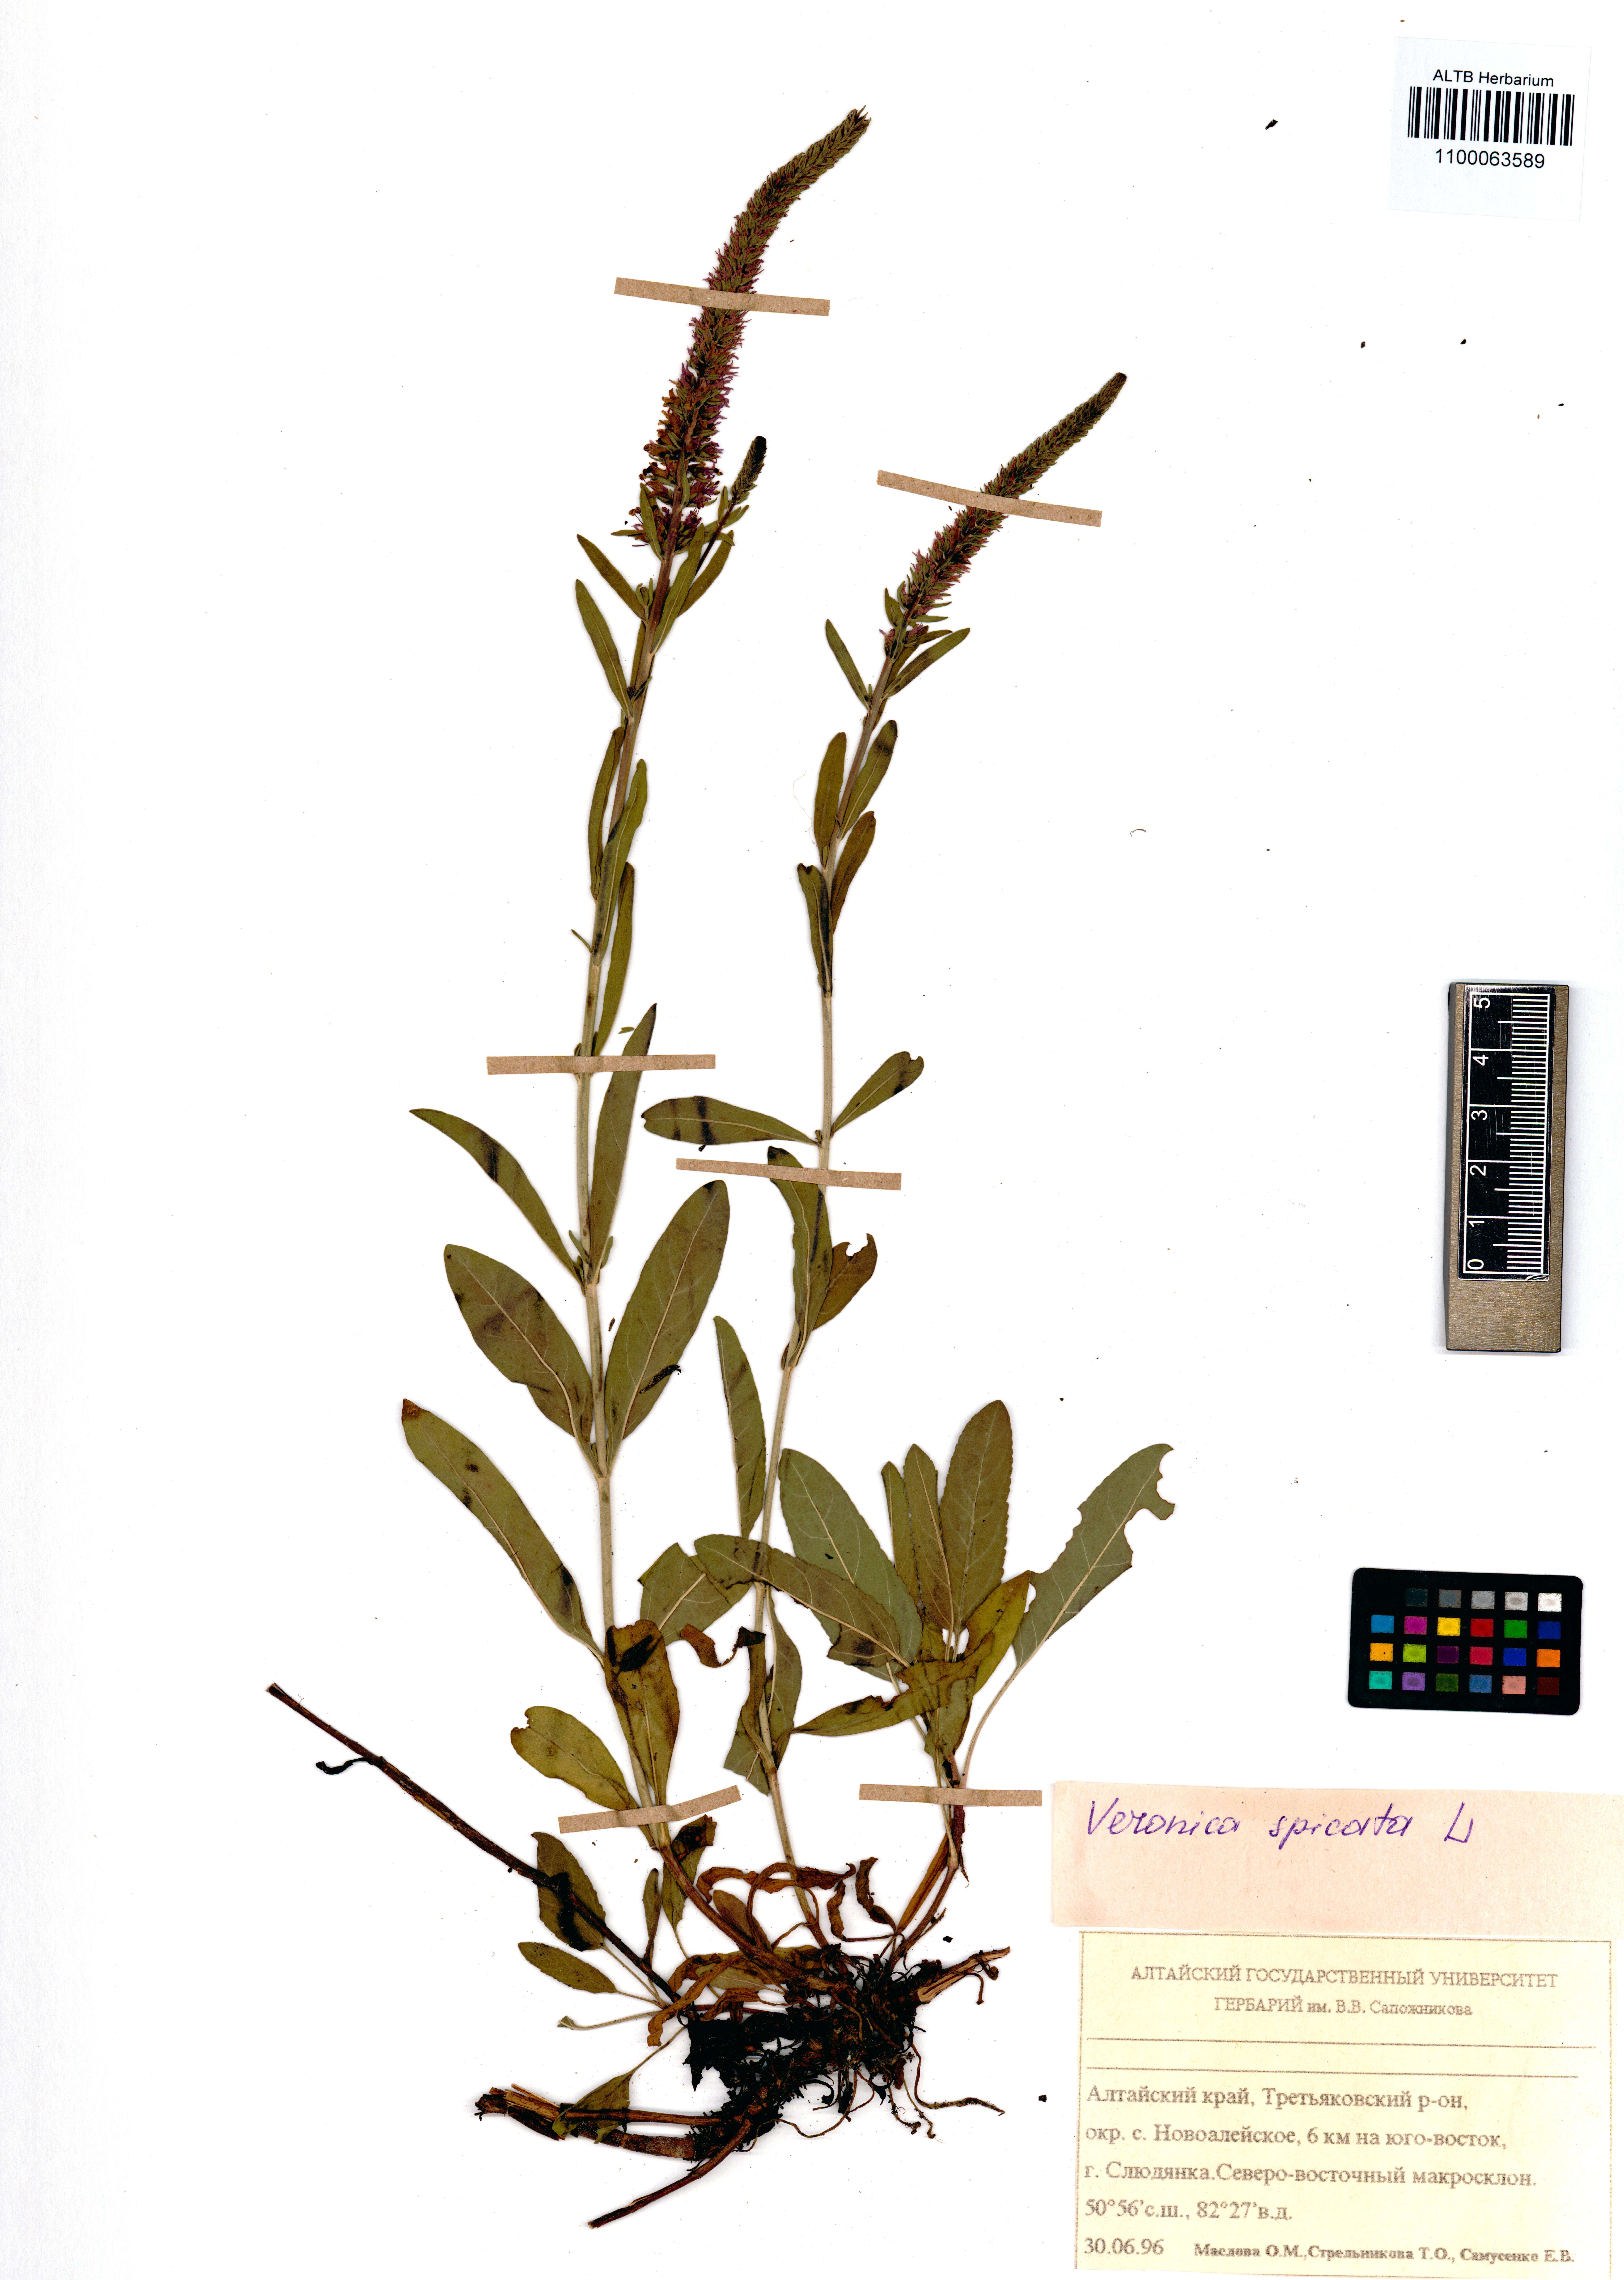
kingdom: Plantae
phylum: Tracheophyta
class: Magnoliopsida
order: Lamiales
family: Plantaginaceae
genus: Veronica
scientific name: Veronica spicata
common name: Spiked speedwell
